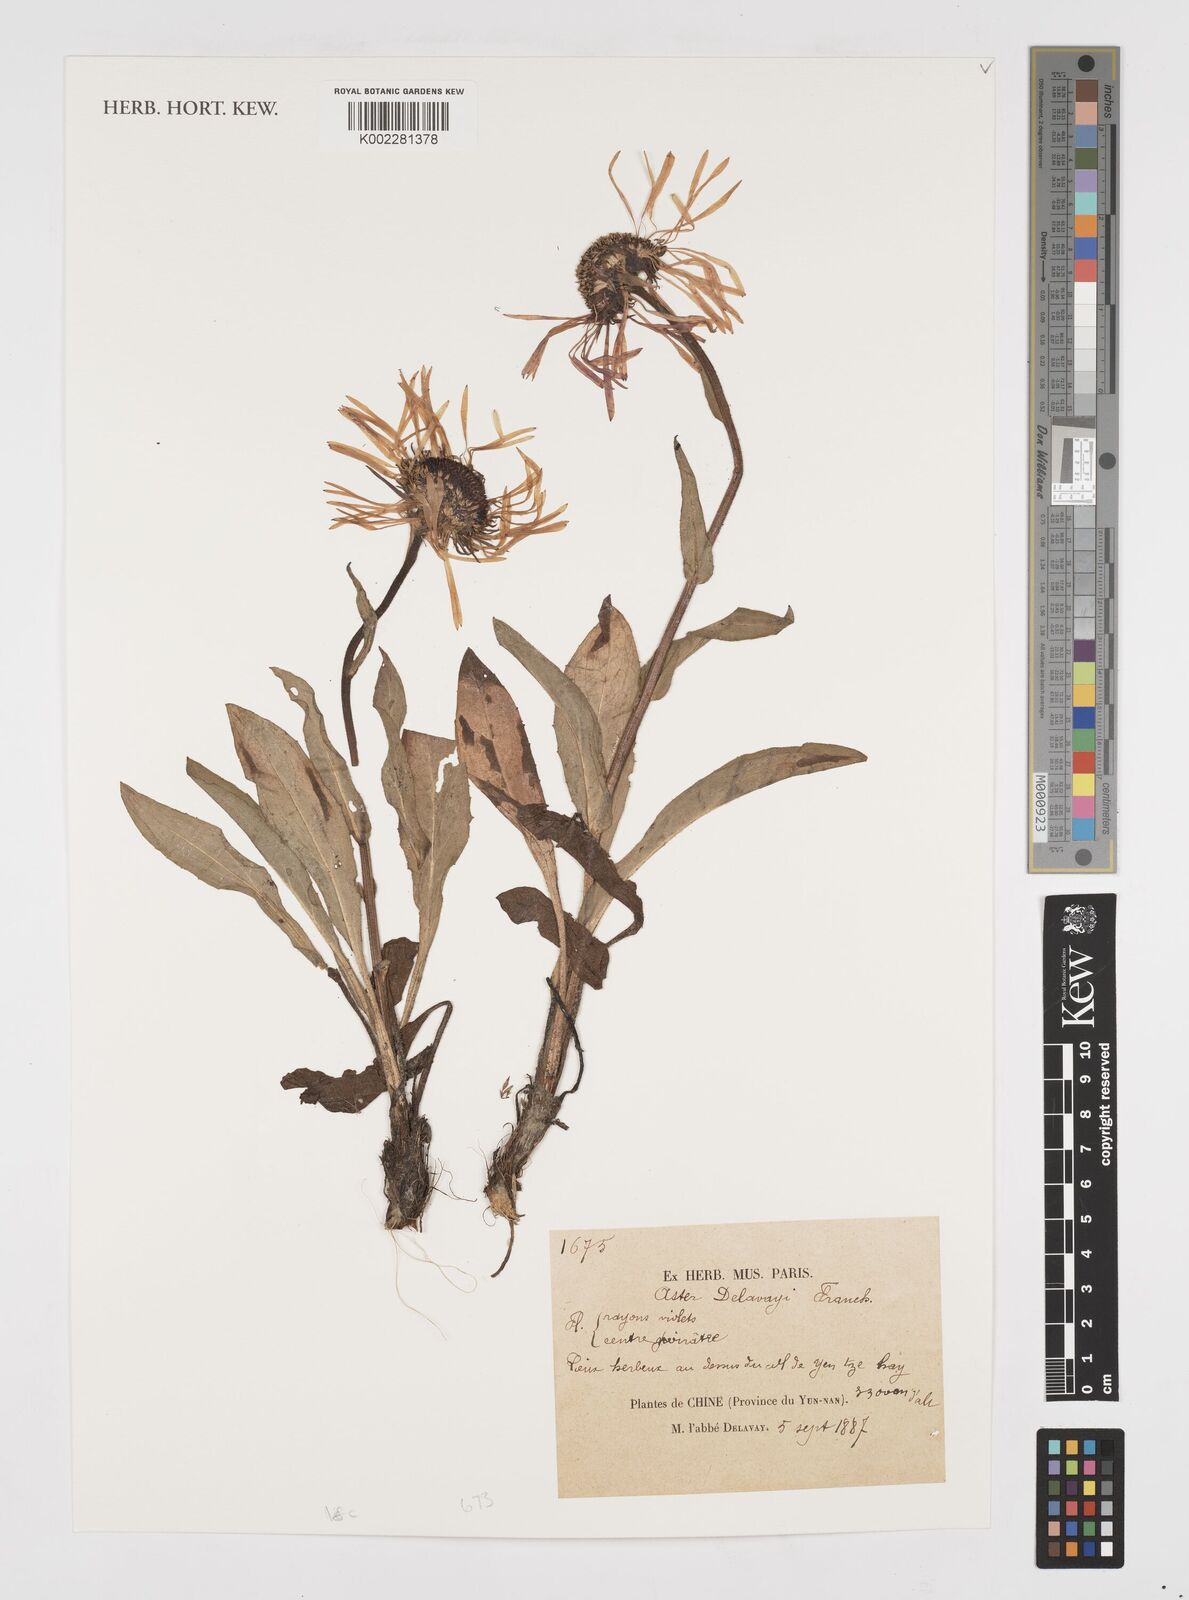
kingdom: Plantae
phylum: Tracheophyta
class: Magnoliopsida
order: Asterales
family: Asteraceae
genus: Tibetiodes
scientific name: Tibetiodes diplostephioides
